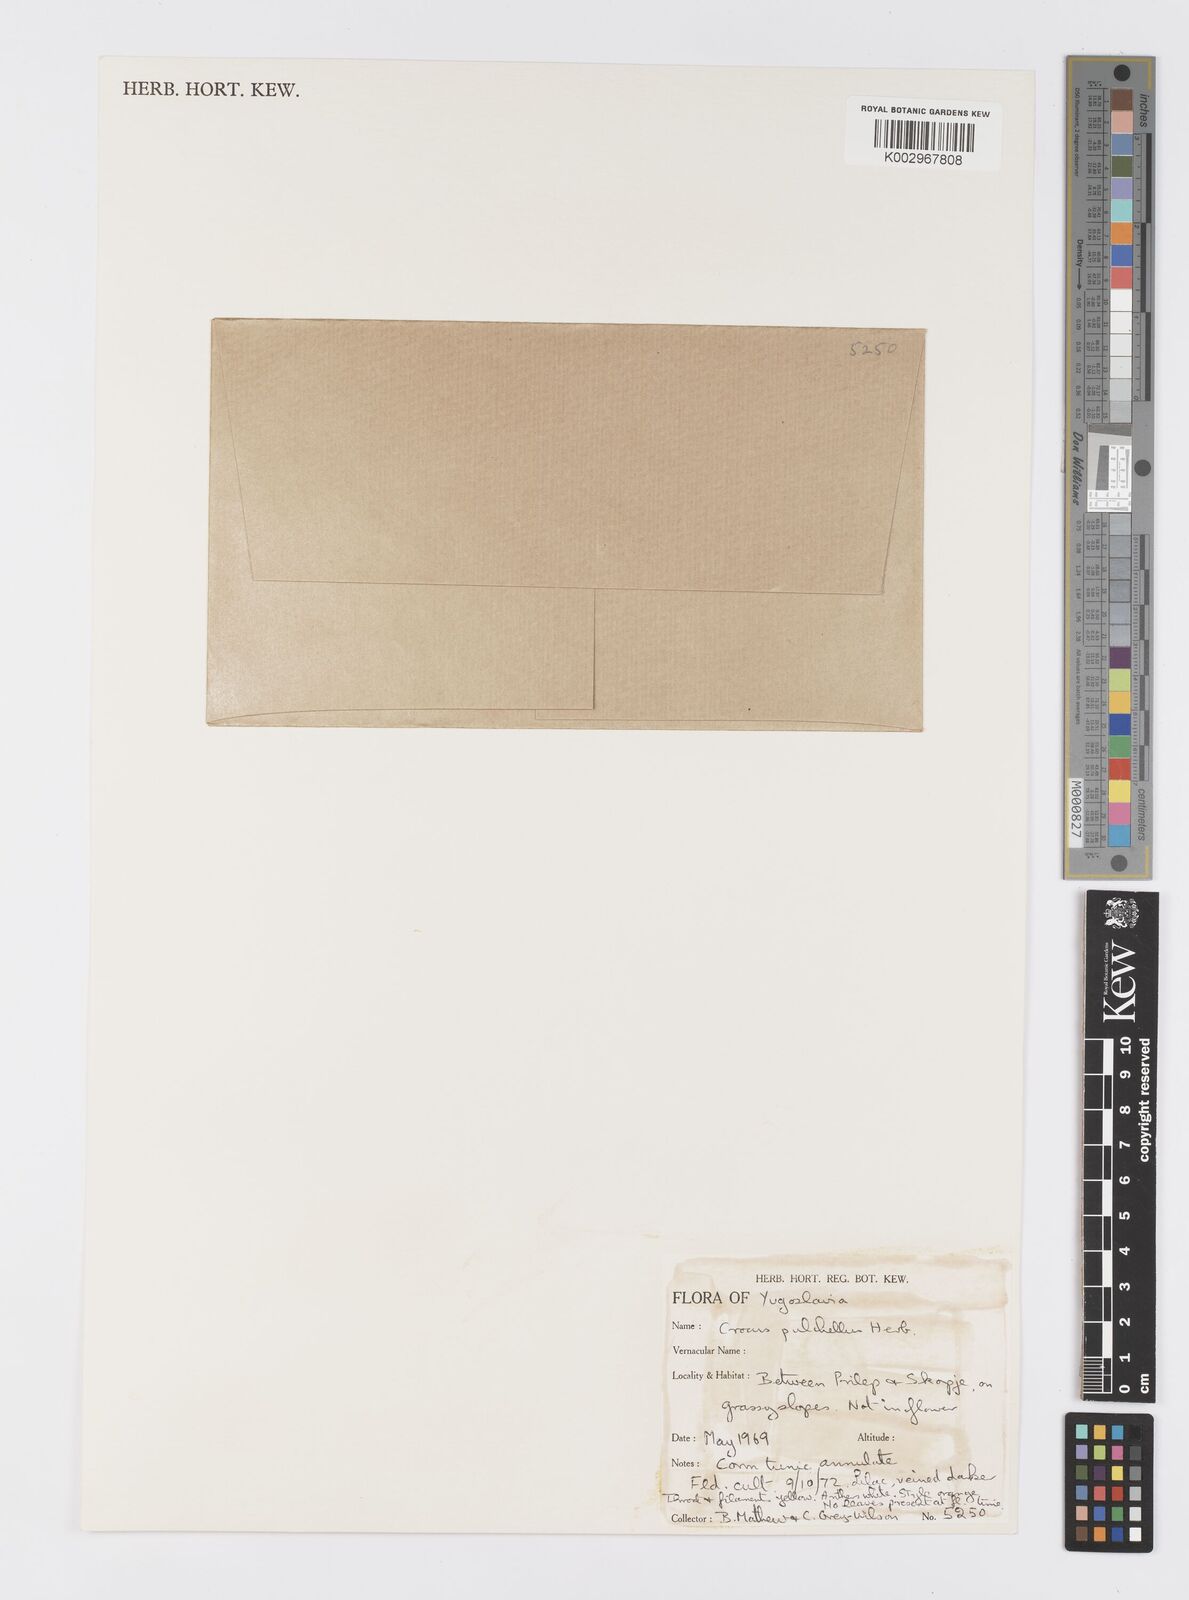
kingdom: Plantae
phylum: Tracheophyta
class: Liliopsida
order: Asparagales
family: Iridaceae
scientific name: Iridaceae
